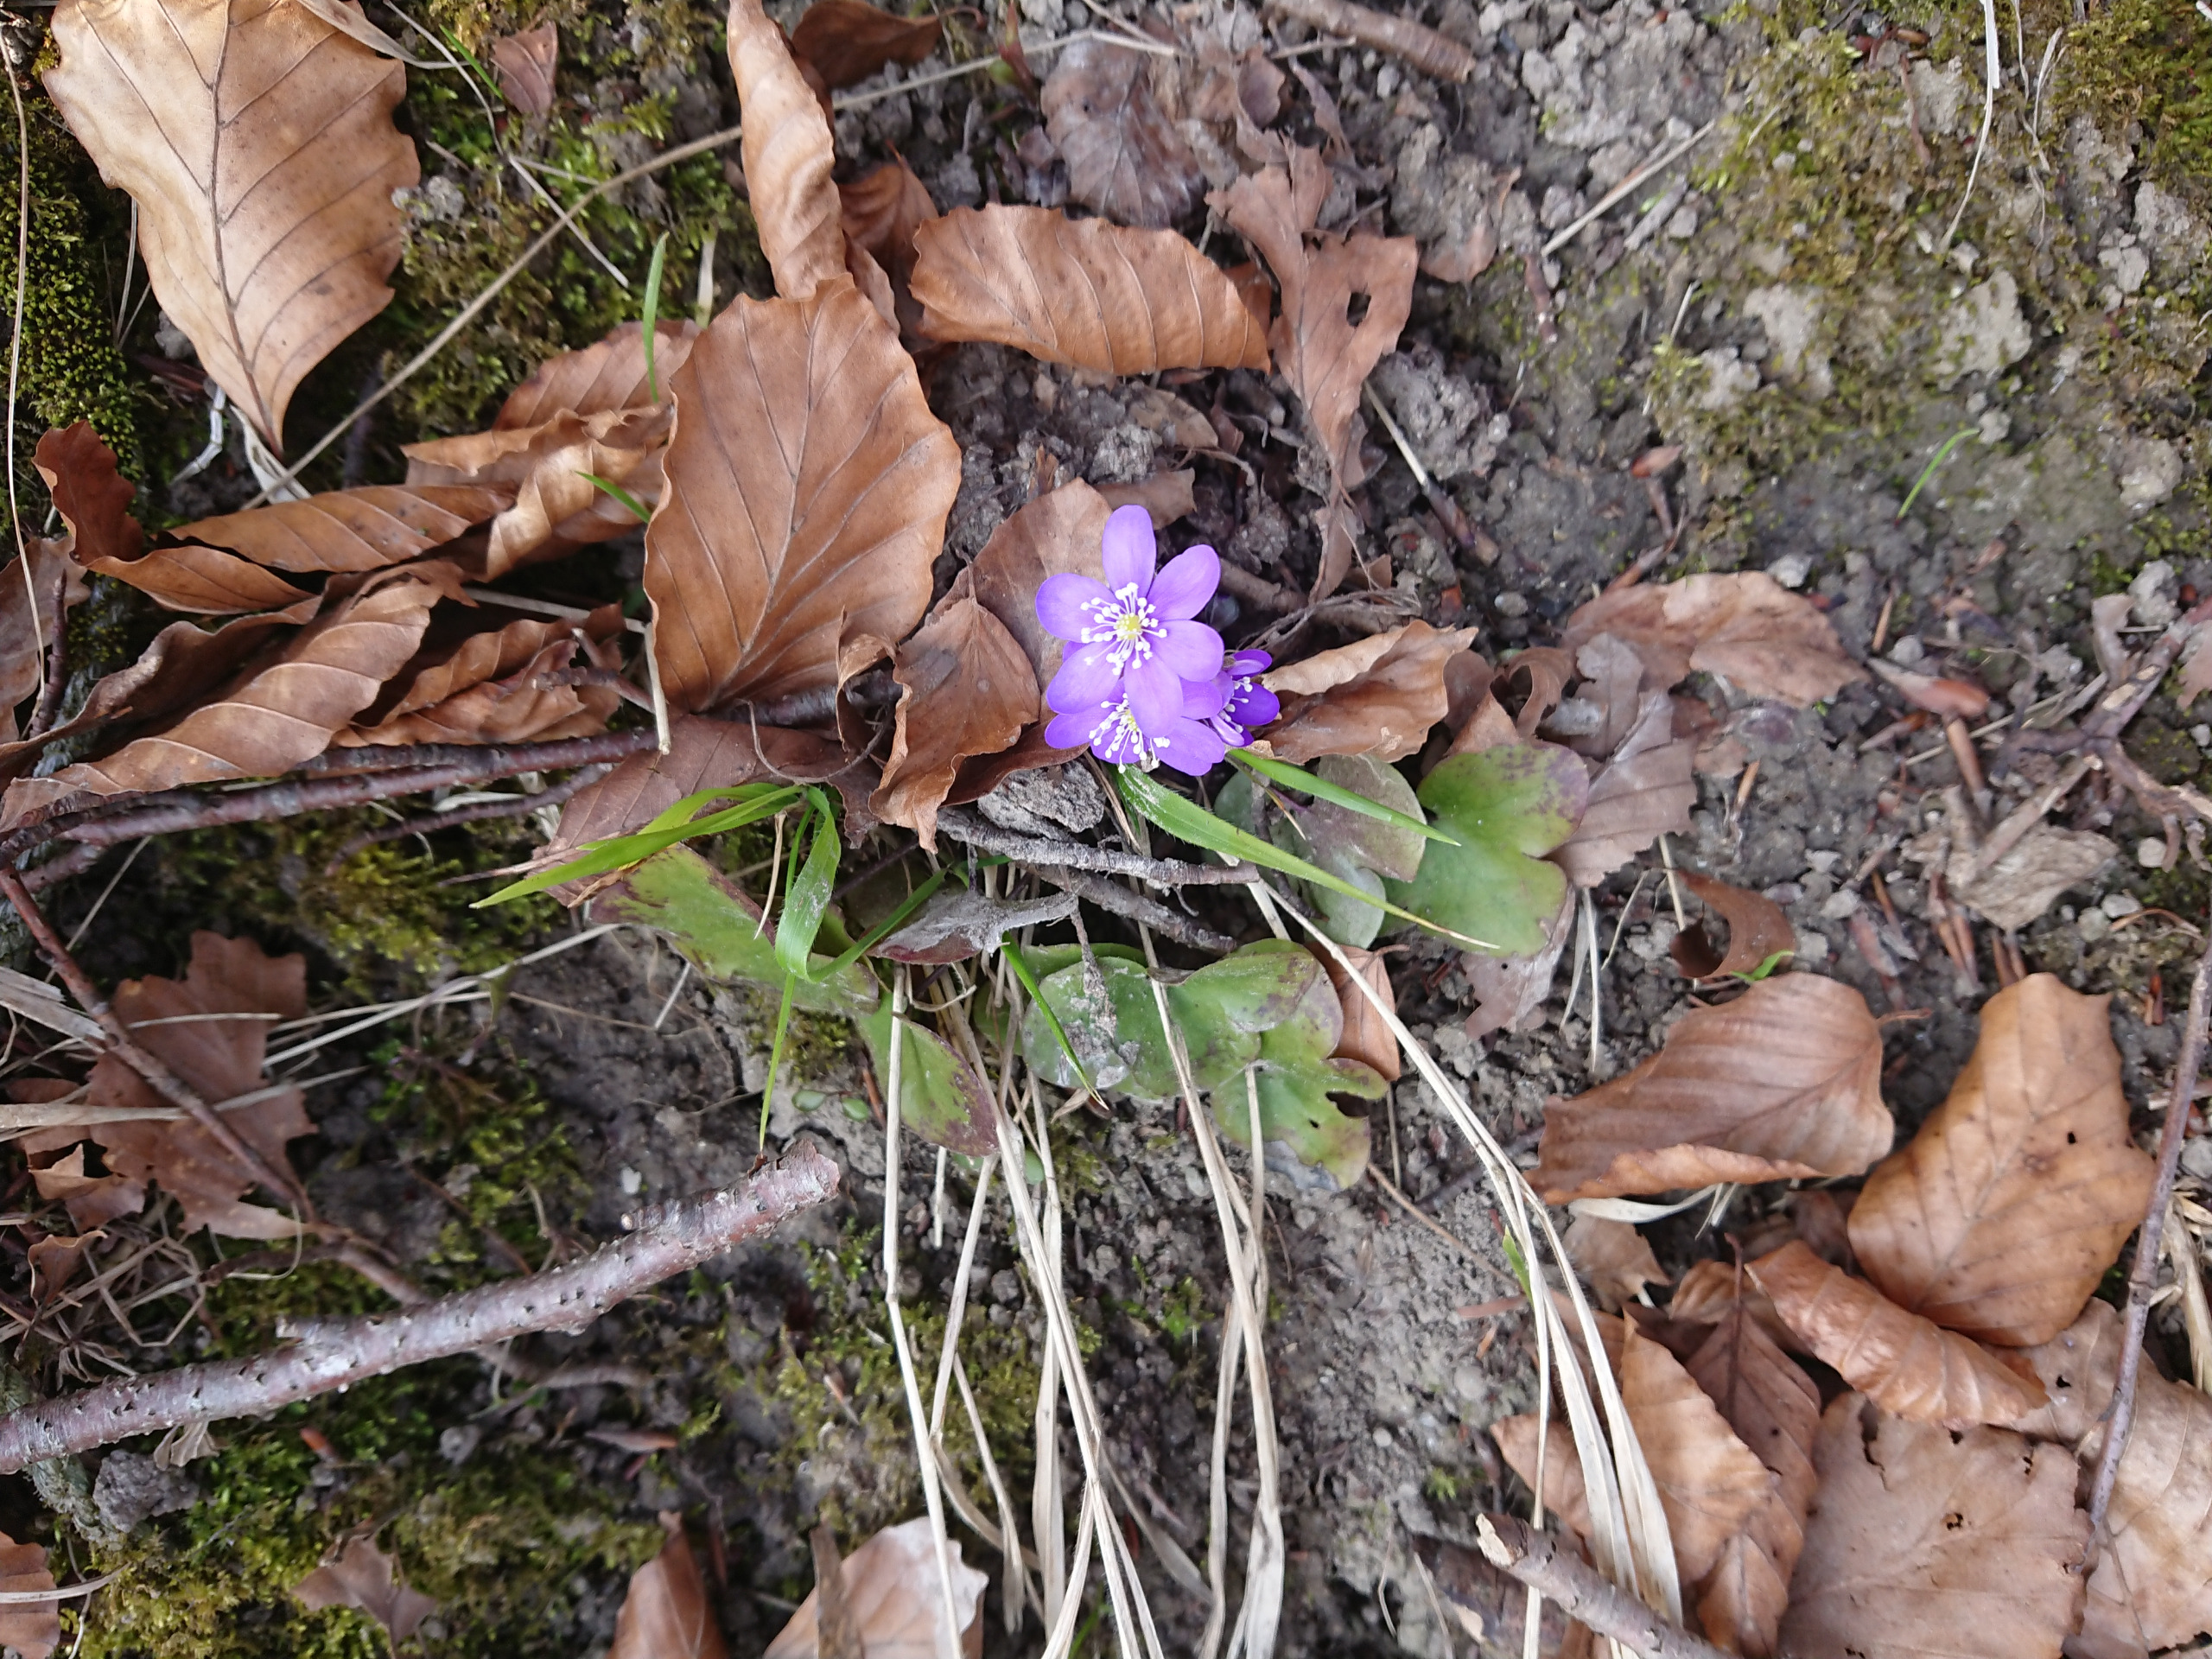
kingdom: Plantae
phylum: Tracheophyta
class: Magnoliopsida
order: Ranunculales
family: Ranunculaceae
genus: Hepatica
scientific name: Hepatica nobilis
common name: Blå anemone
